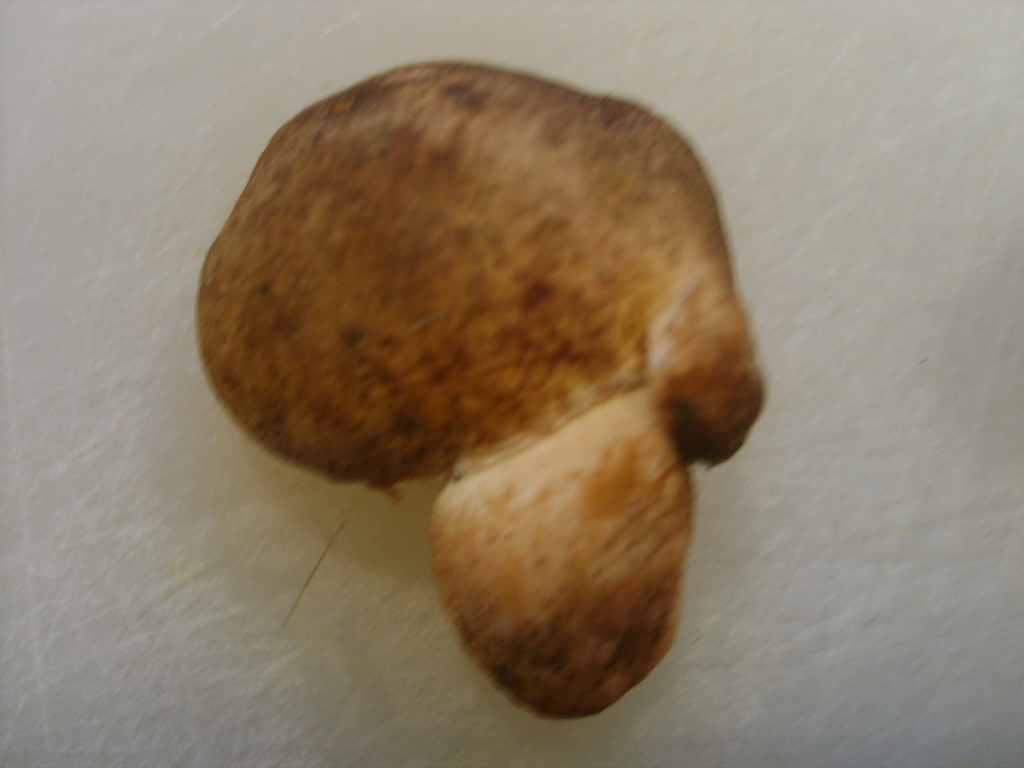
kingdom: Fungi
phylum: Basidiomycota
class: Agaricomycetes
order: Boletales
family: Boletaceae
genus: Tylopilus
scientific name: Tylopilus felleus
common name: galderørhat
